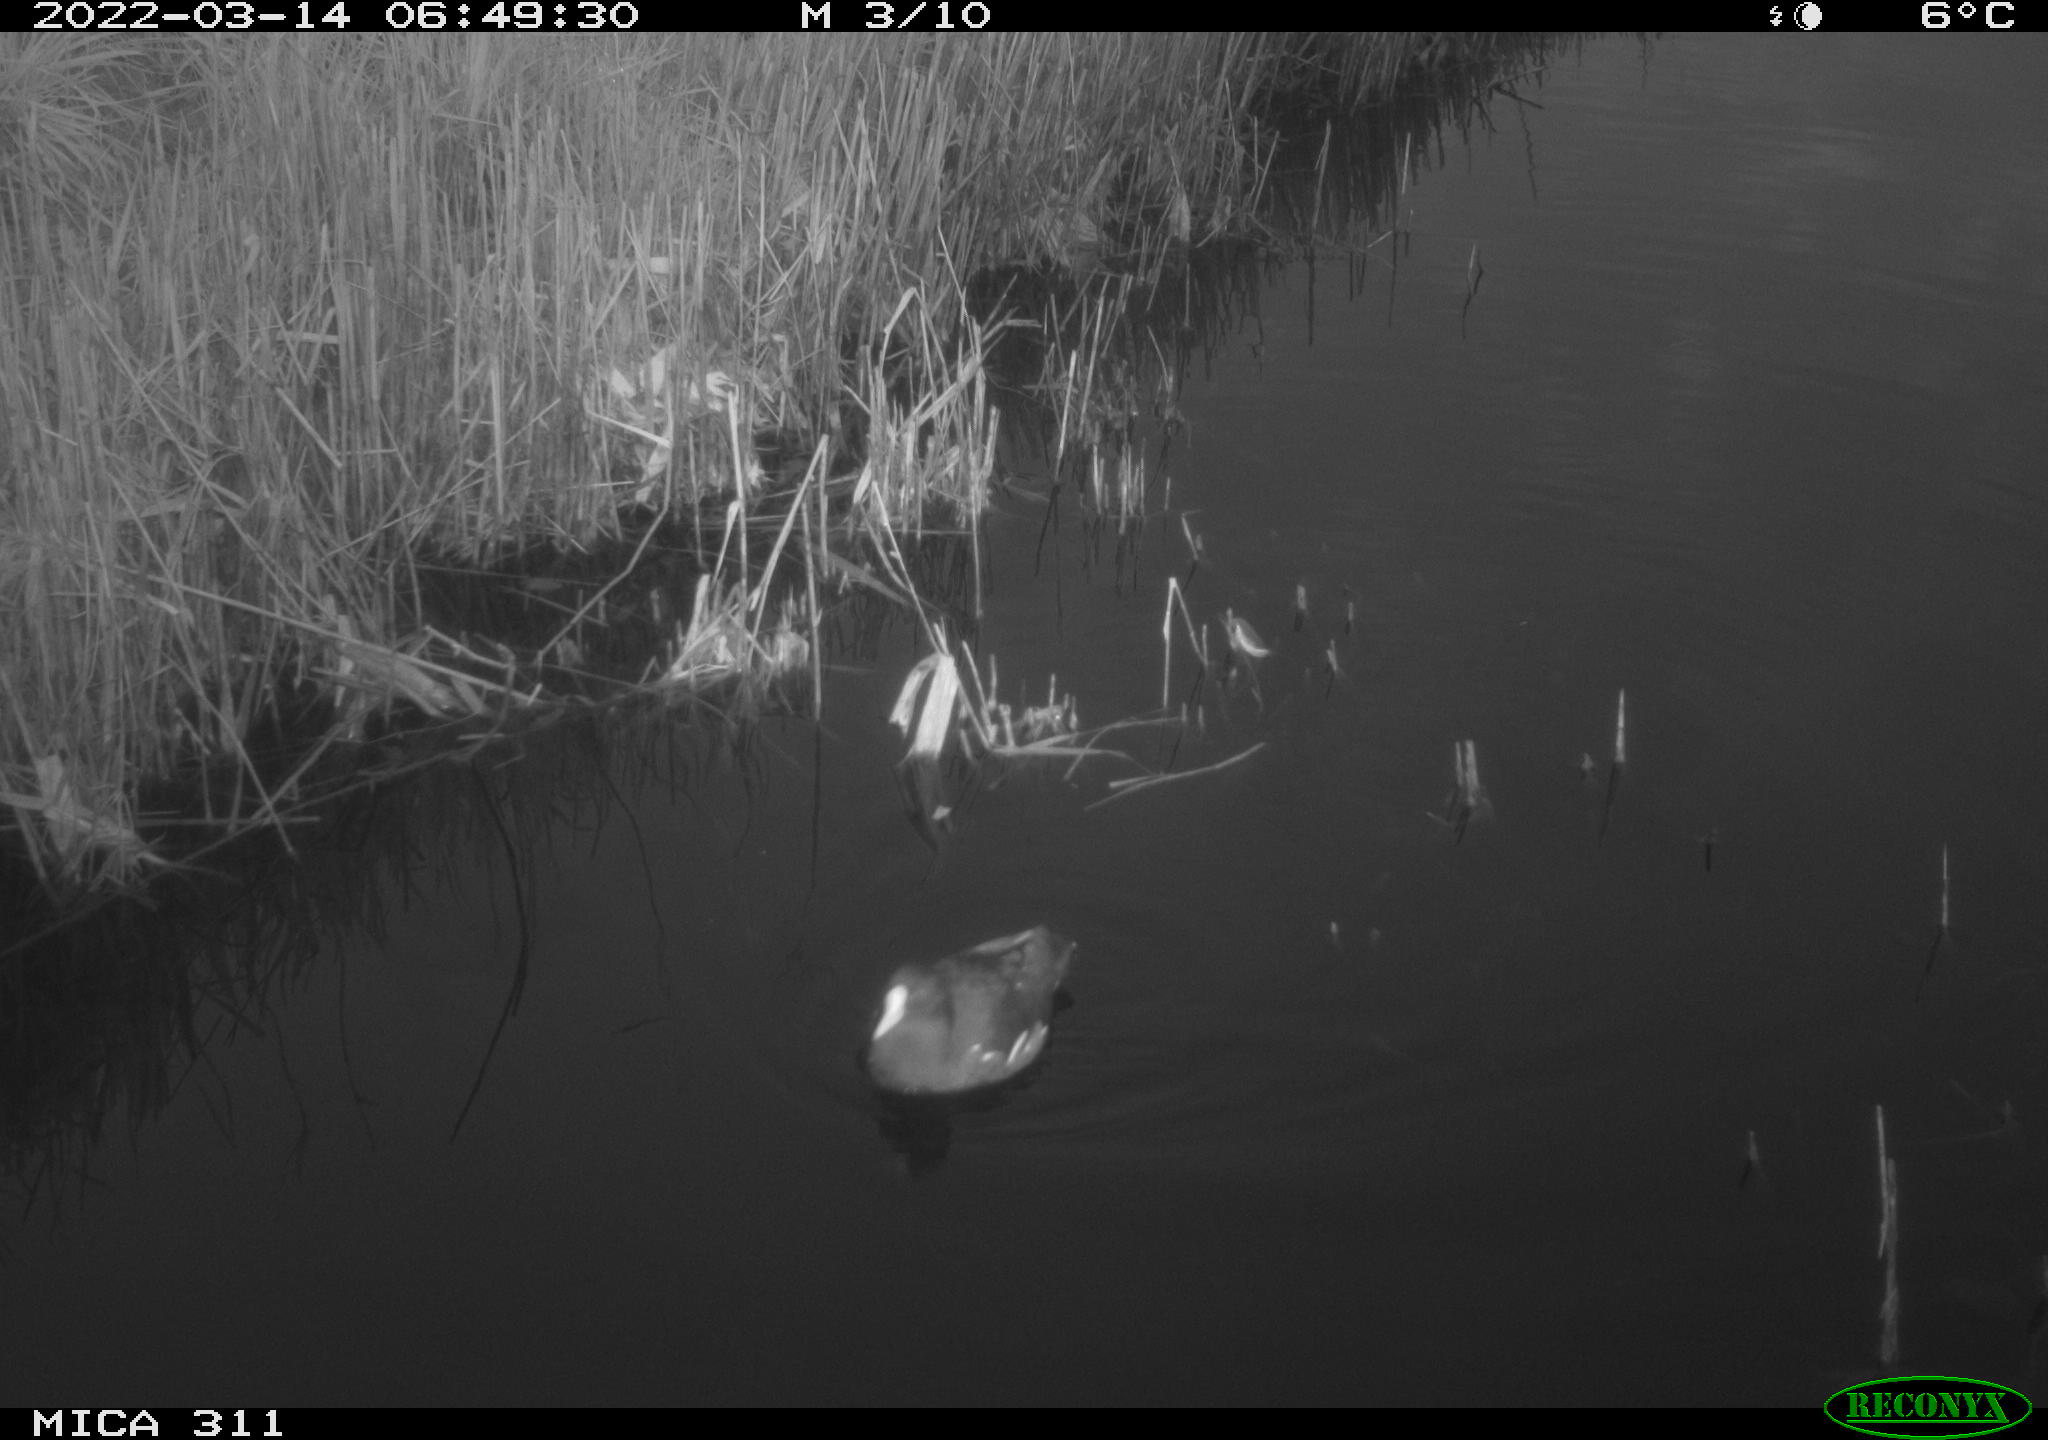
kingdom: Animalia
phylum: Chordata
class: Aves
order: Gruiformes
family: Rallidae
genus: Gallinula
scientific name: Gallinula chloropus
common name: Common moorhen
